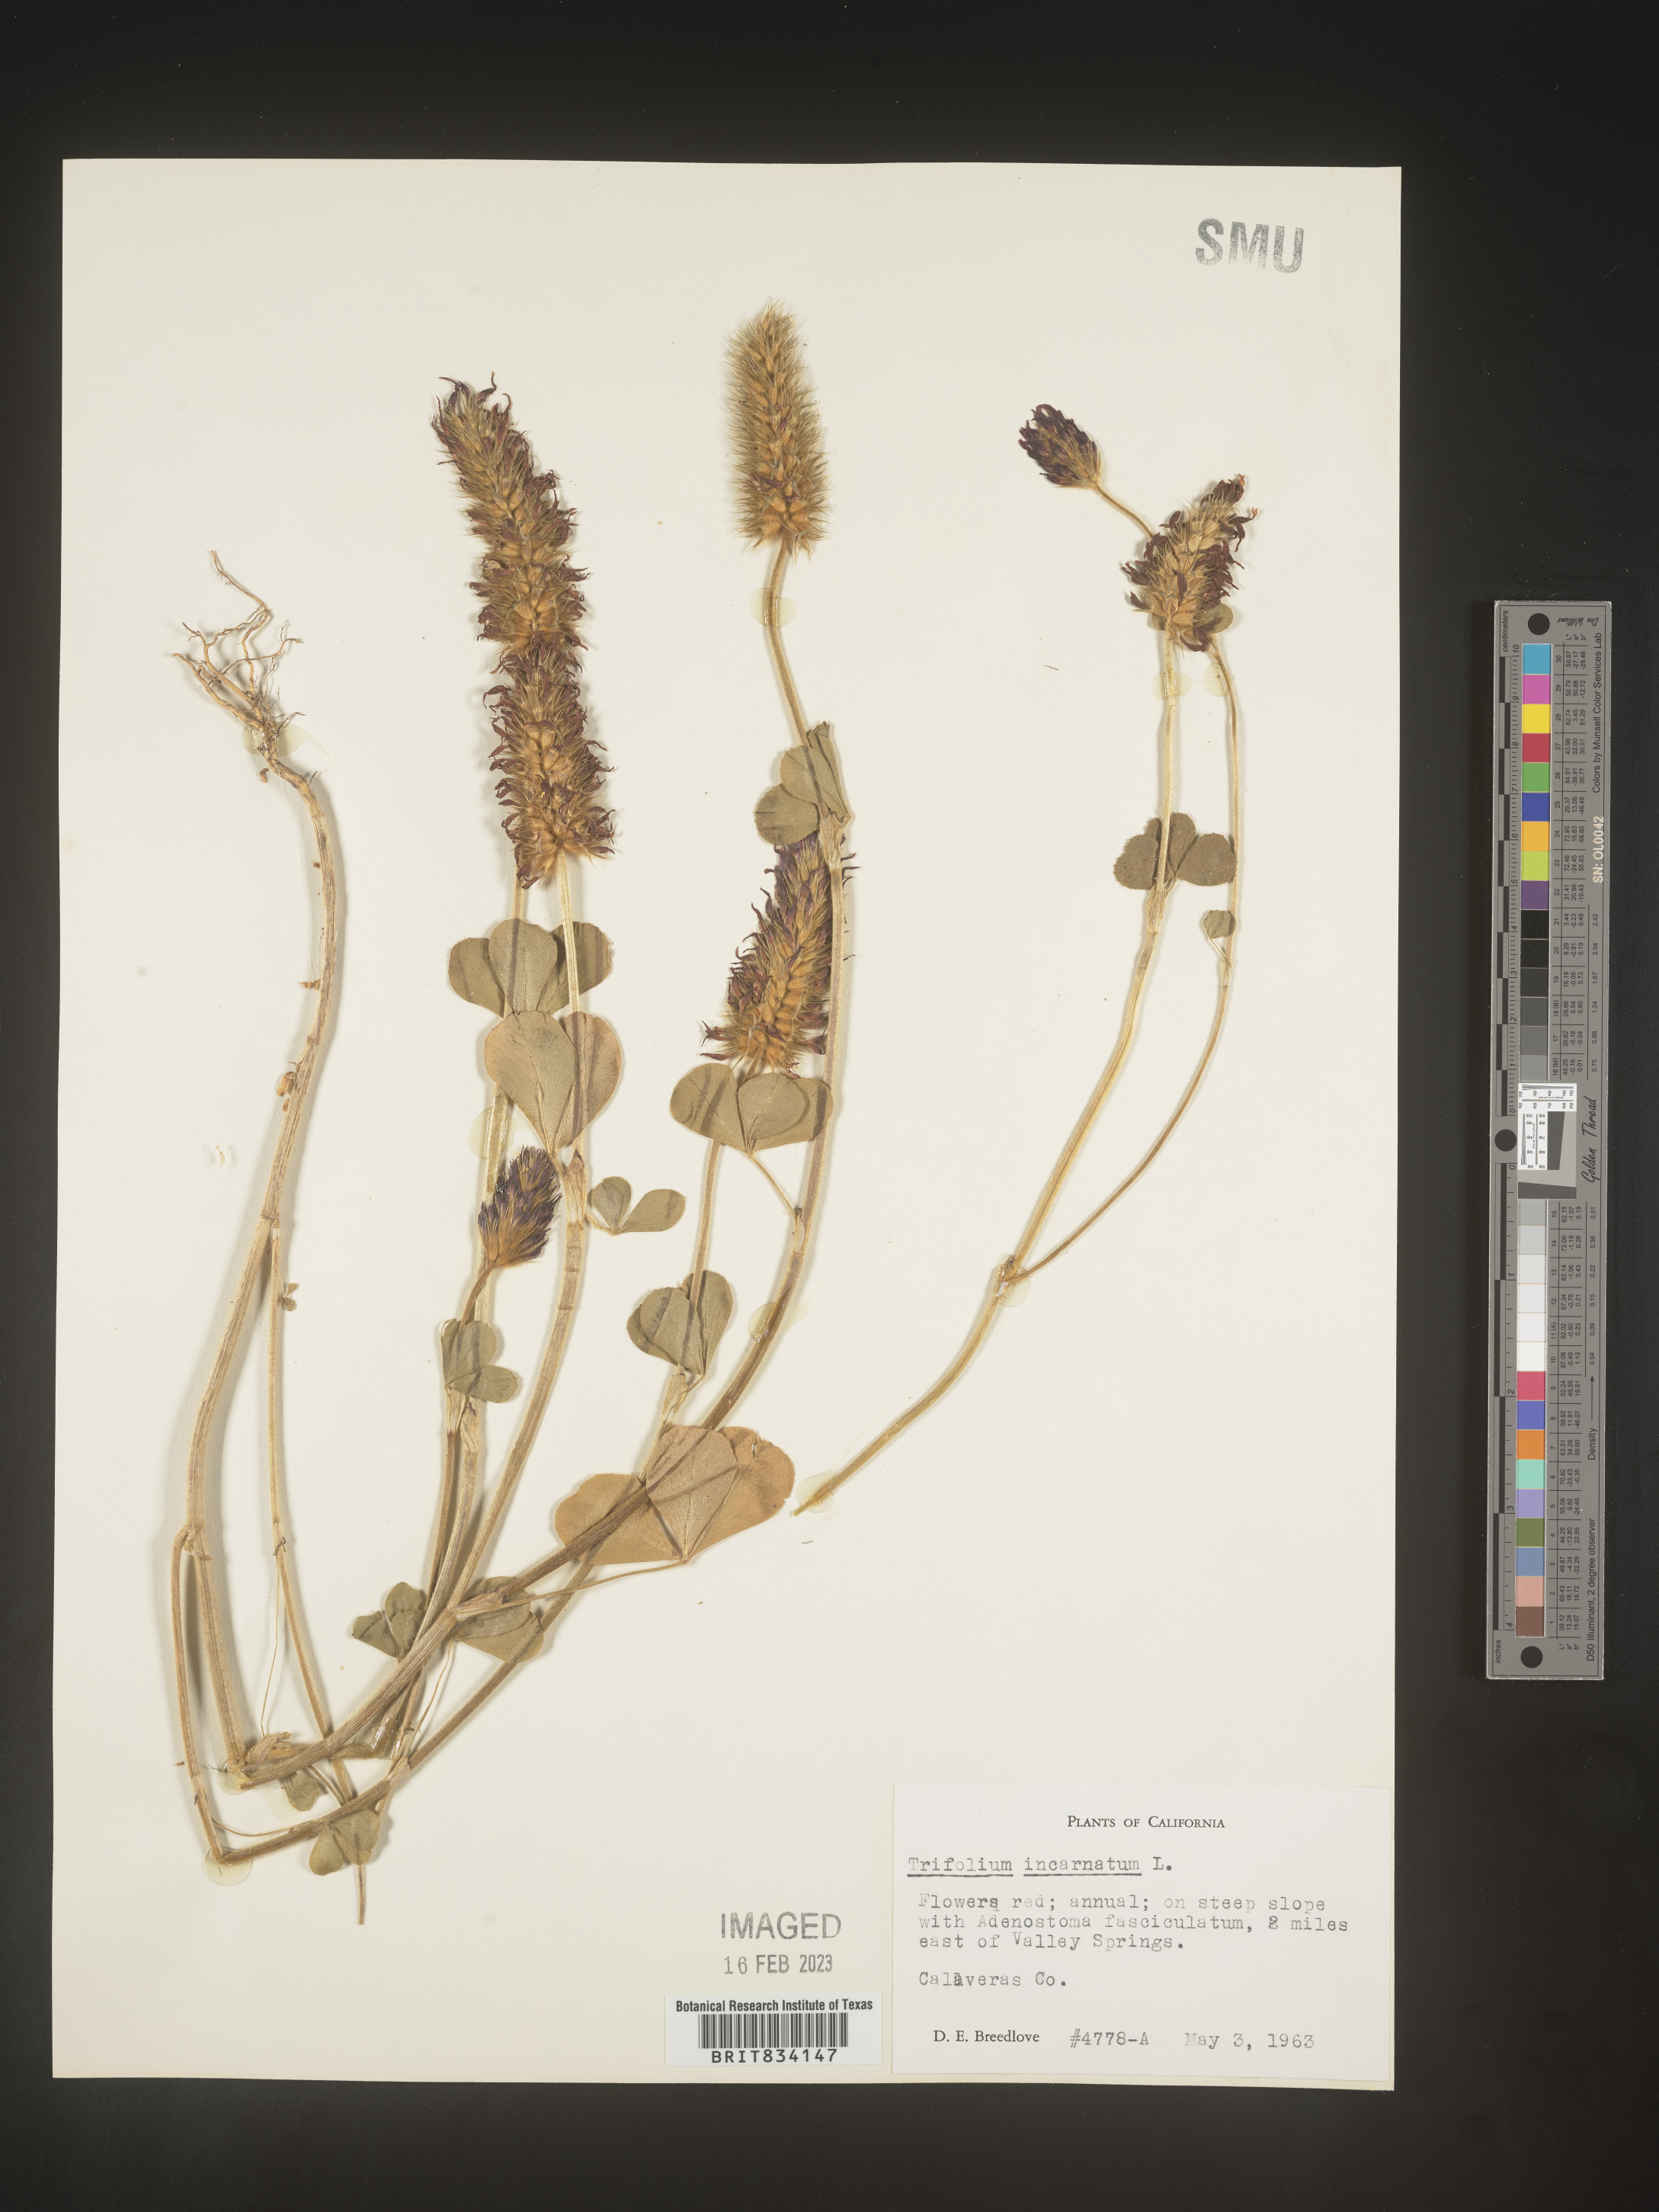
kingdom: Plantae
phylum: Tracheophyta
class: Magnoliopsida
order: Fabales
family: Fabaceae
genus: Trifolium
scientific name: Trifolium incarnatum
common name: Crimson clover
